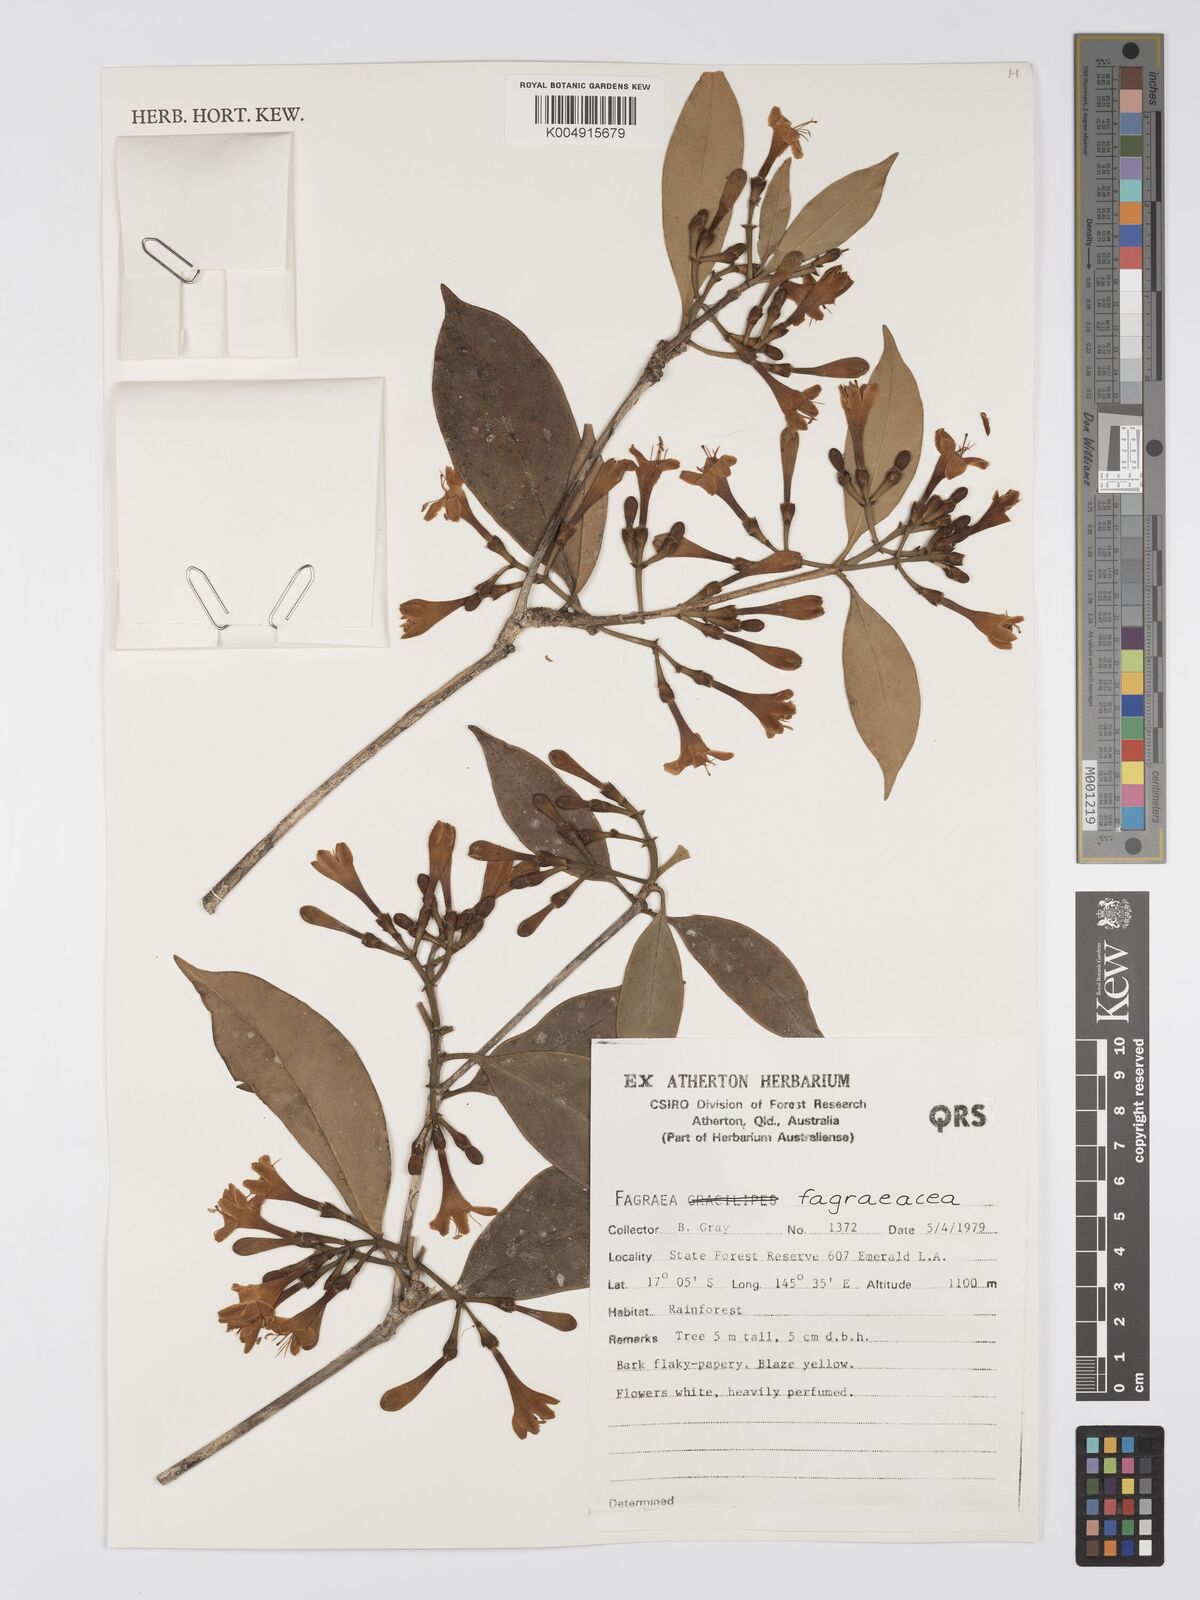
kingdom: Plantae
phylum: Tracheophyta
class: Magnoliopsida
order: Gentianales
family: Gentianaceae
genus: Fagraea
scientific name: Fagraea
